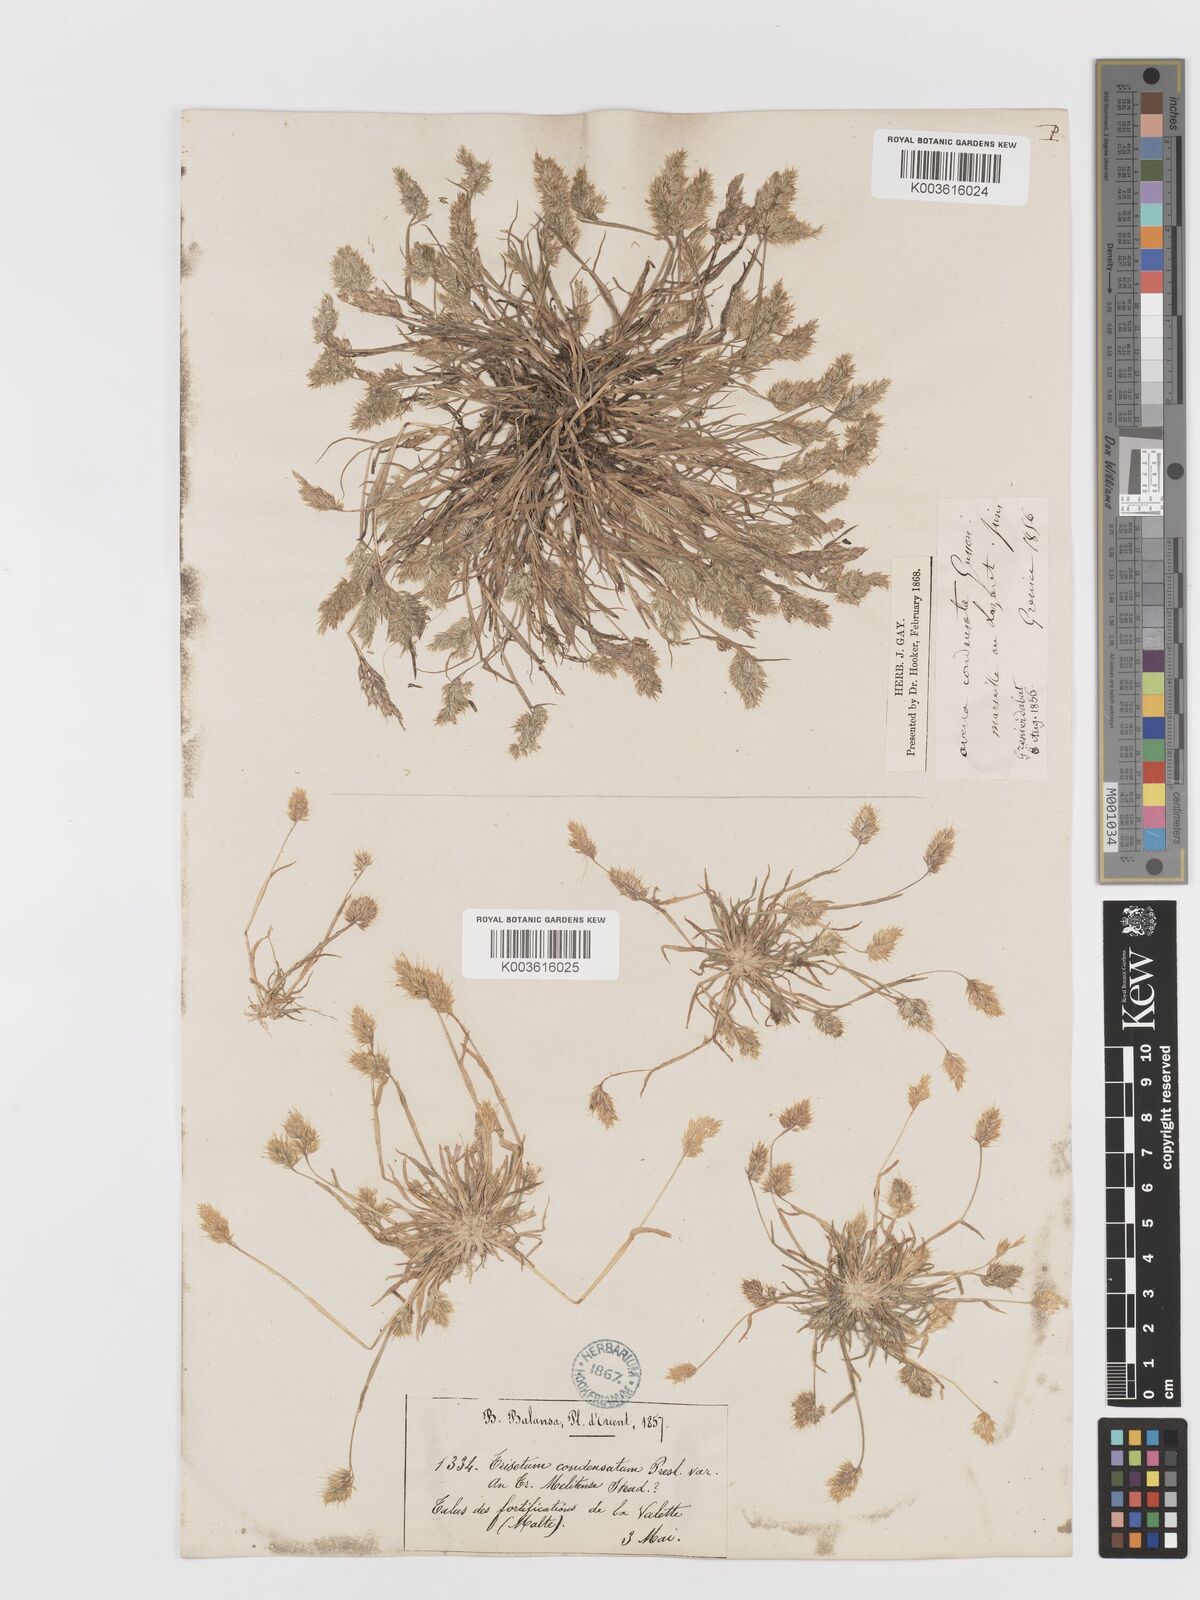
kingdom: Plantae
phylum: Tracheophyta
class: Liliopsida
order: Poales
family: Poaceae
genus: Trisetaria
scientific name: Trisetaria aurea
